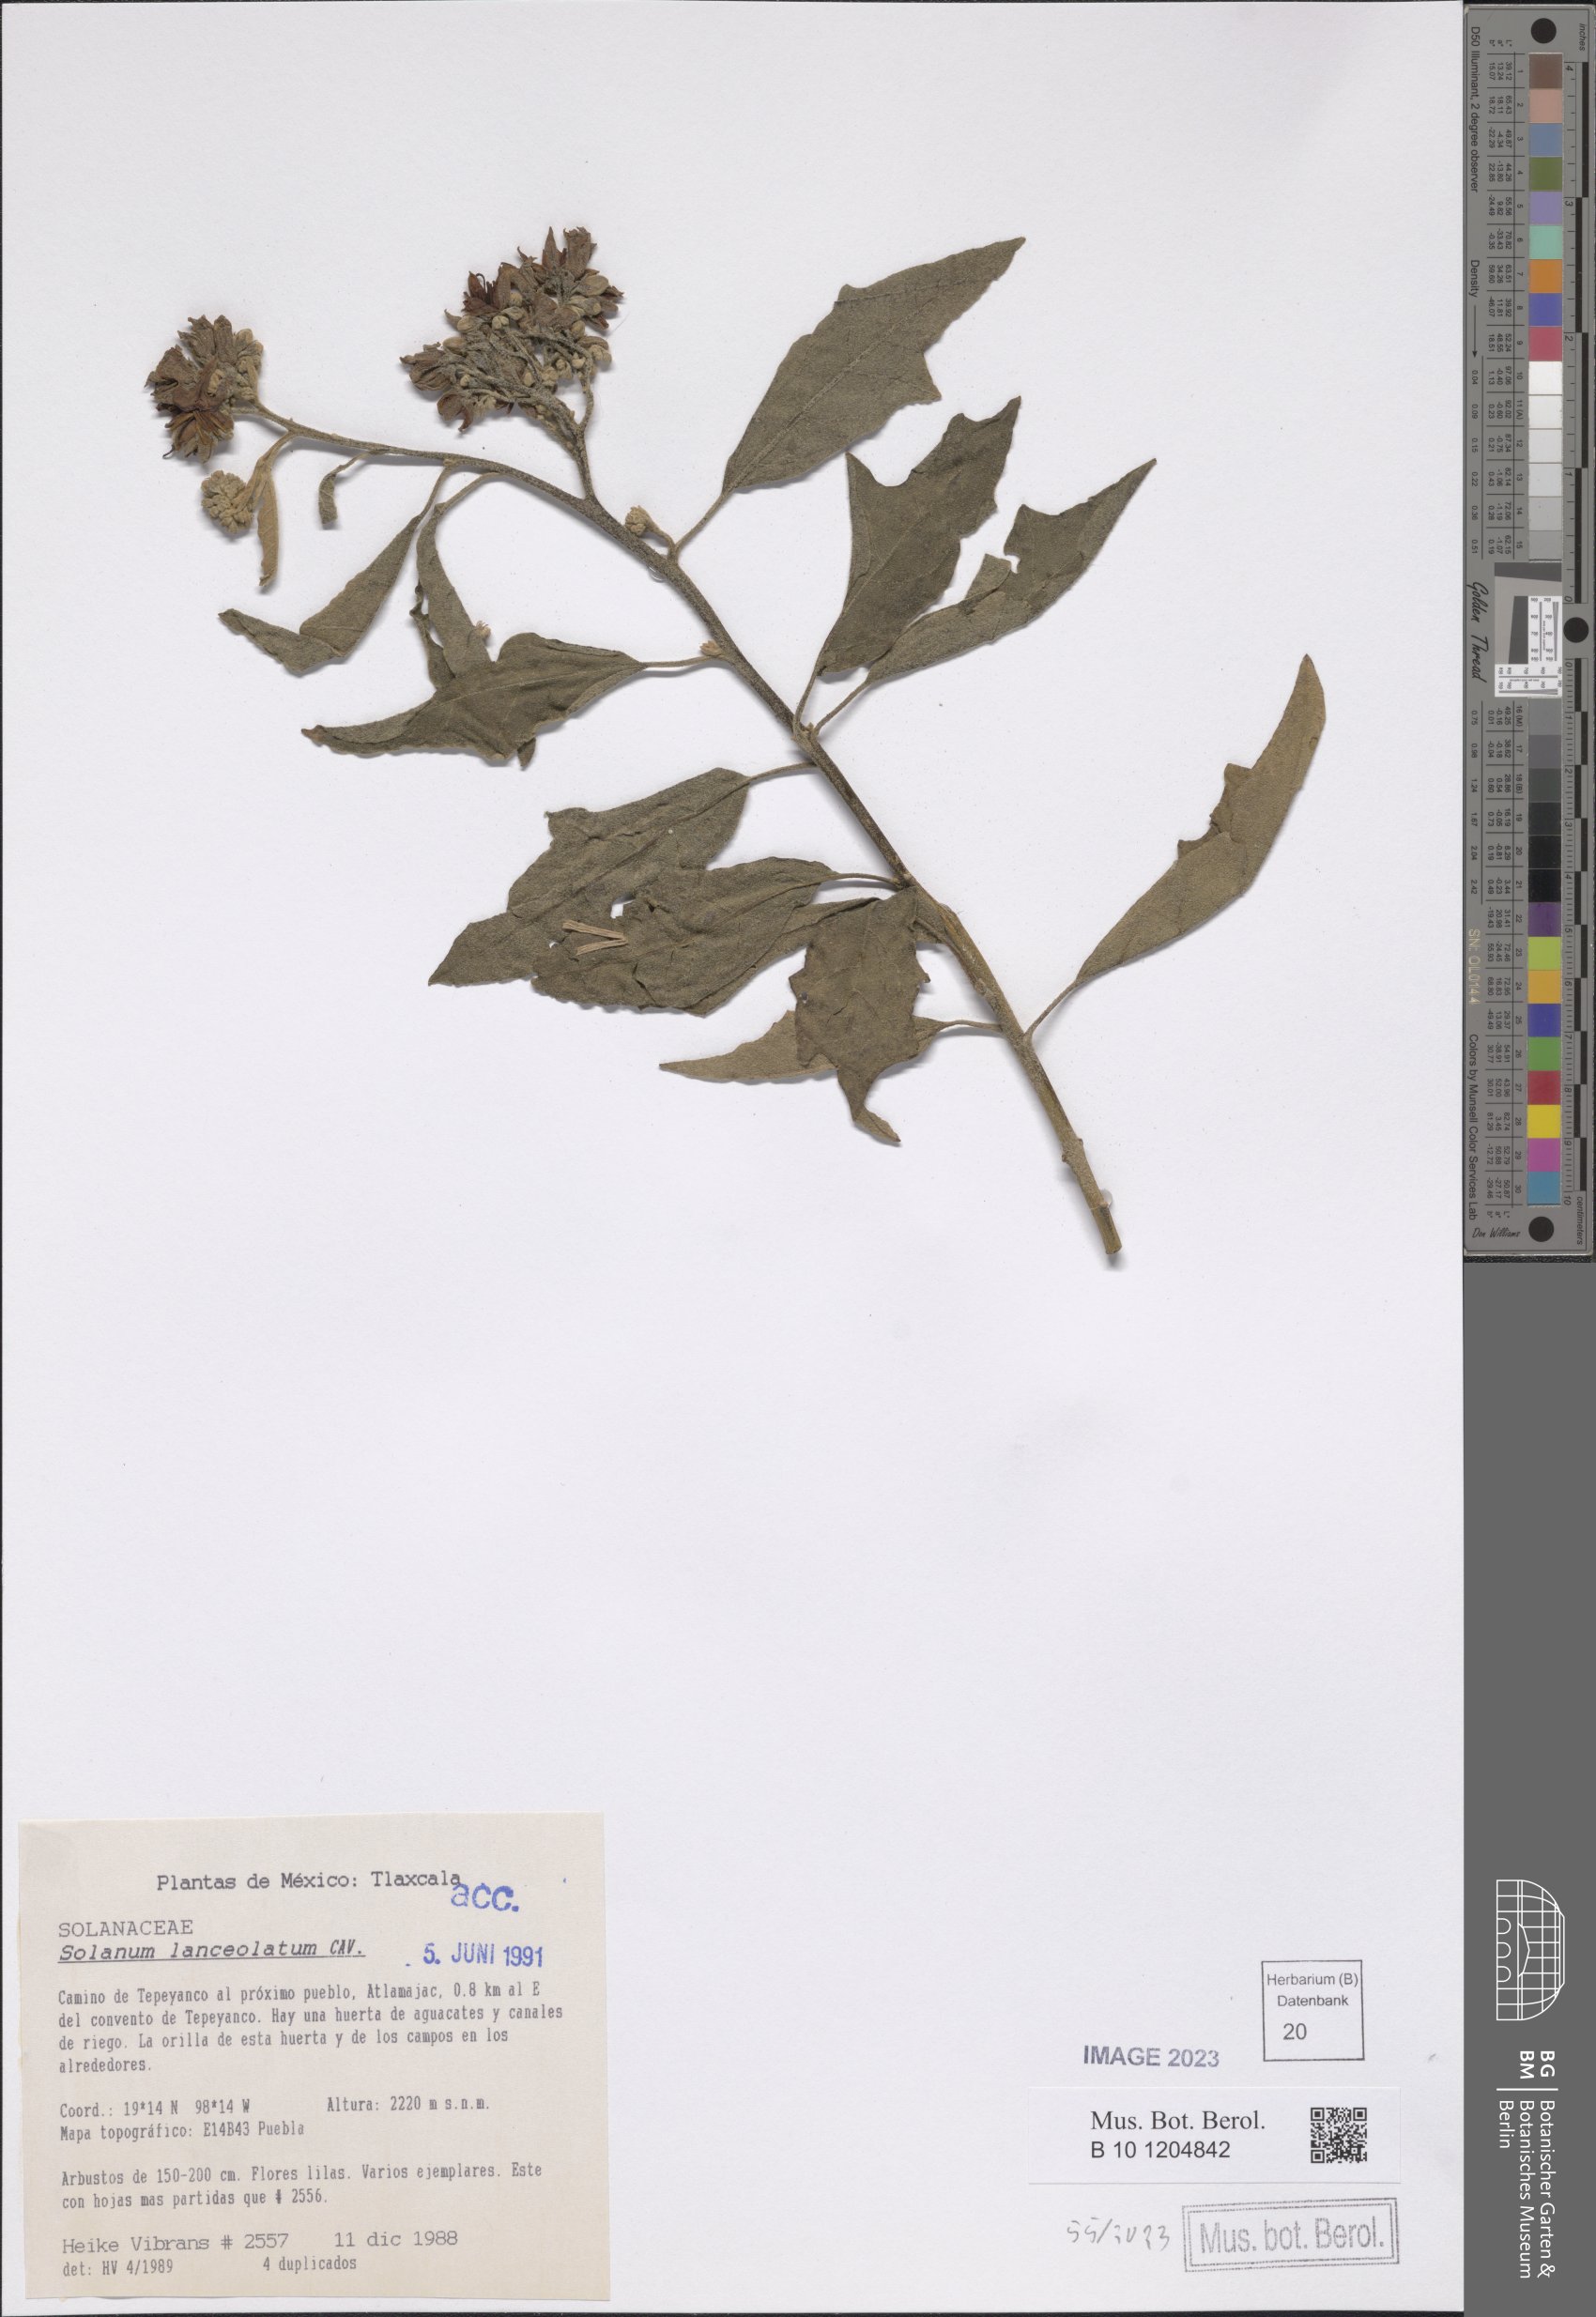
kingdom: Plantae
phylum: Tracheophyta
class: Magnoliopsida
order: Solanales
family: Solanaceae
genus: Solanum
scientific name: Solanum lanceolatum
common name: Orangeberry nightshade
